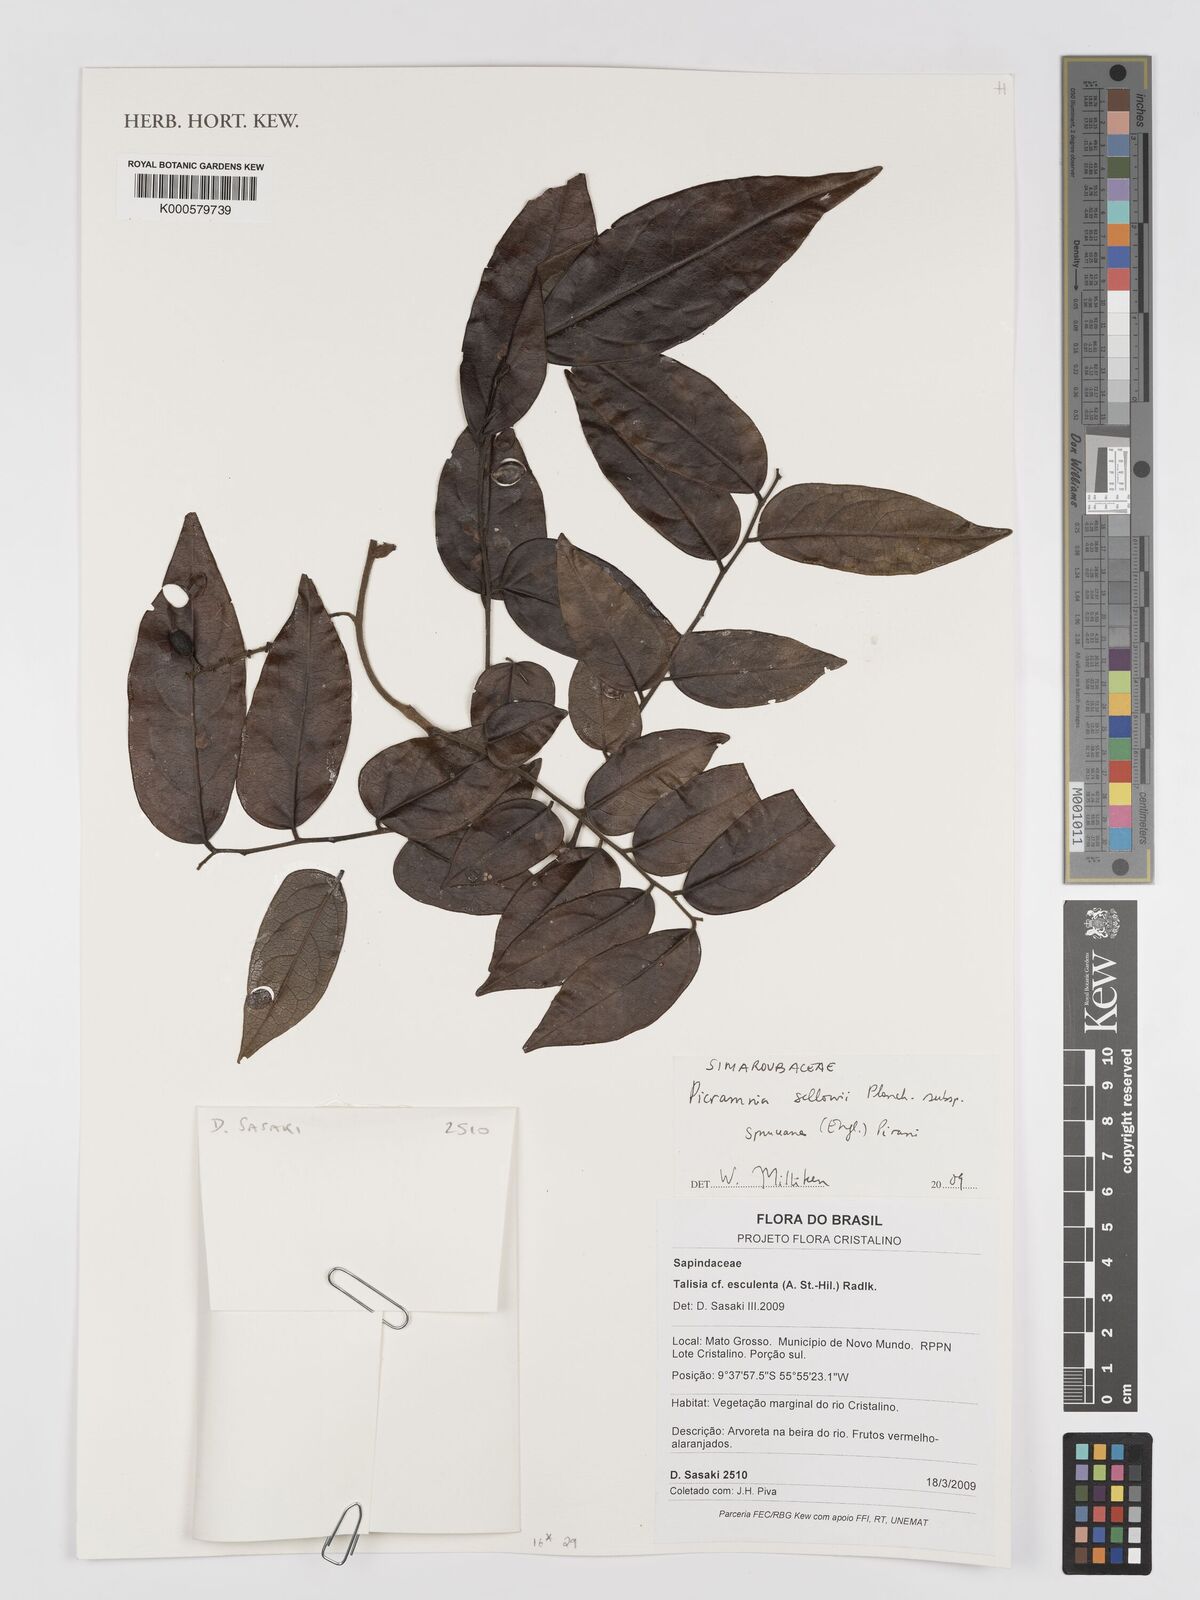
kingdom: Plantae
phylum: Tracheophyta
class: Magnoliopsida
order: Picramniales
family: Picramniaceae
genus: Picramnia
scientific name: Picramnia spruceana
